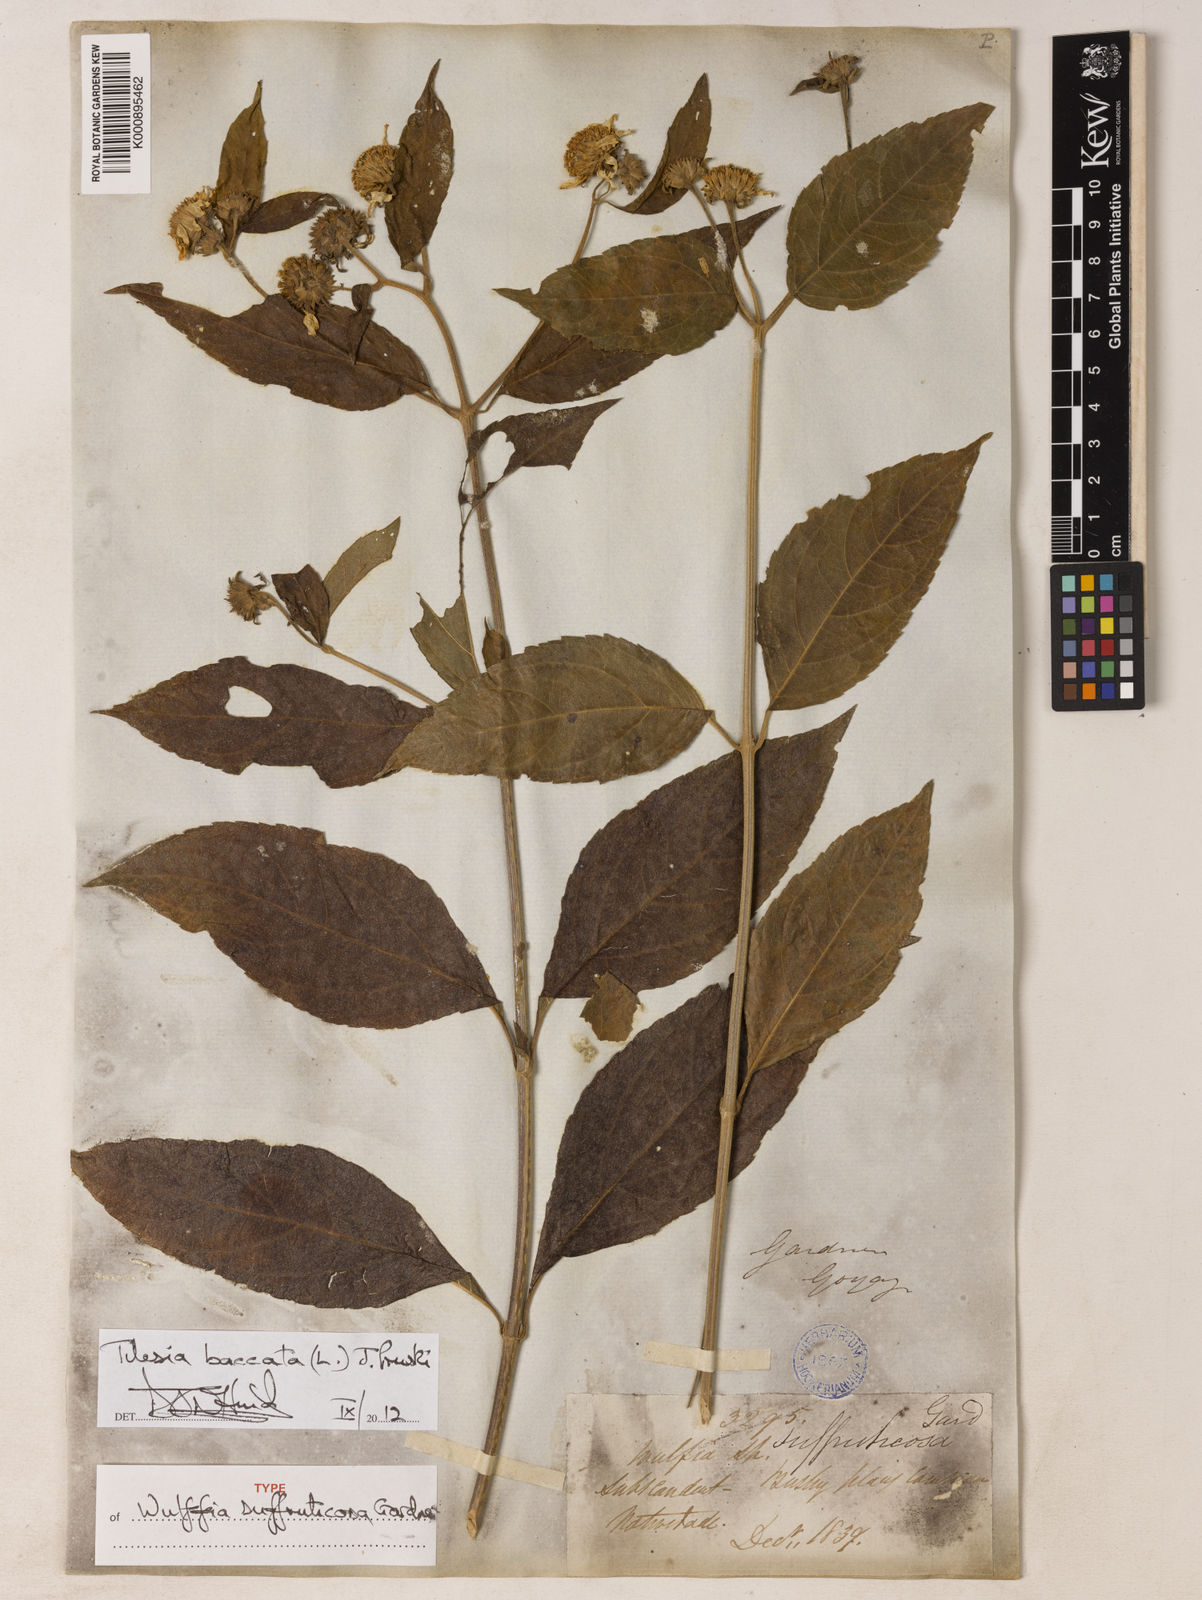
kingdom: Plantae
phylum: Tracheophyta
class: Magnoliopsida
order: Asterales
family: Asteraceae
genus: Tilesia
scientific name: Tilesia baccata
